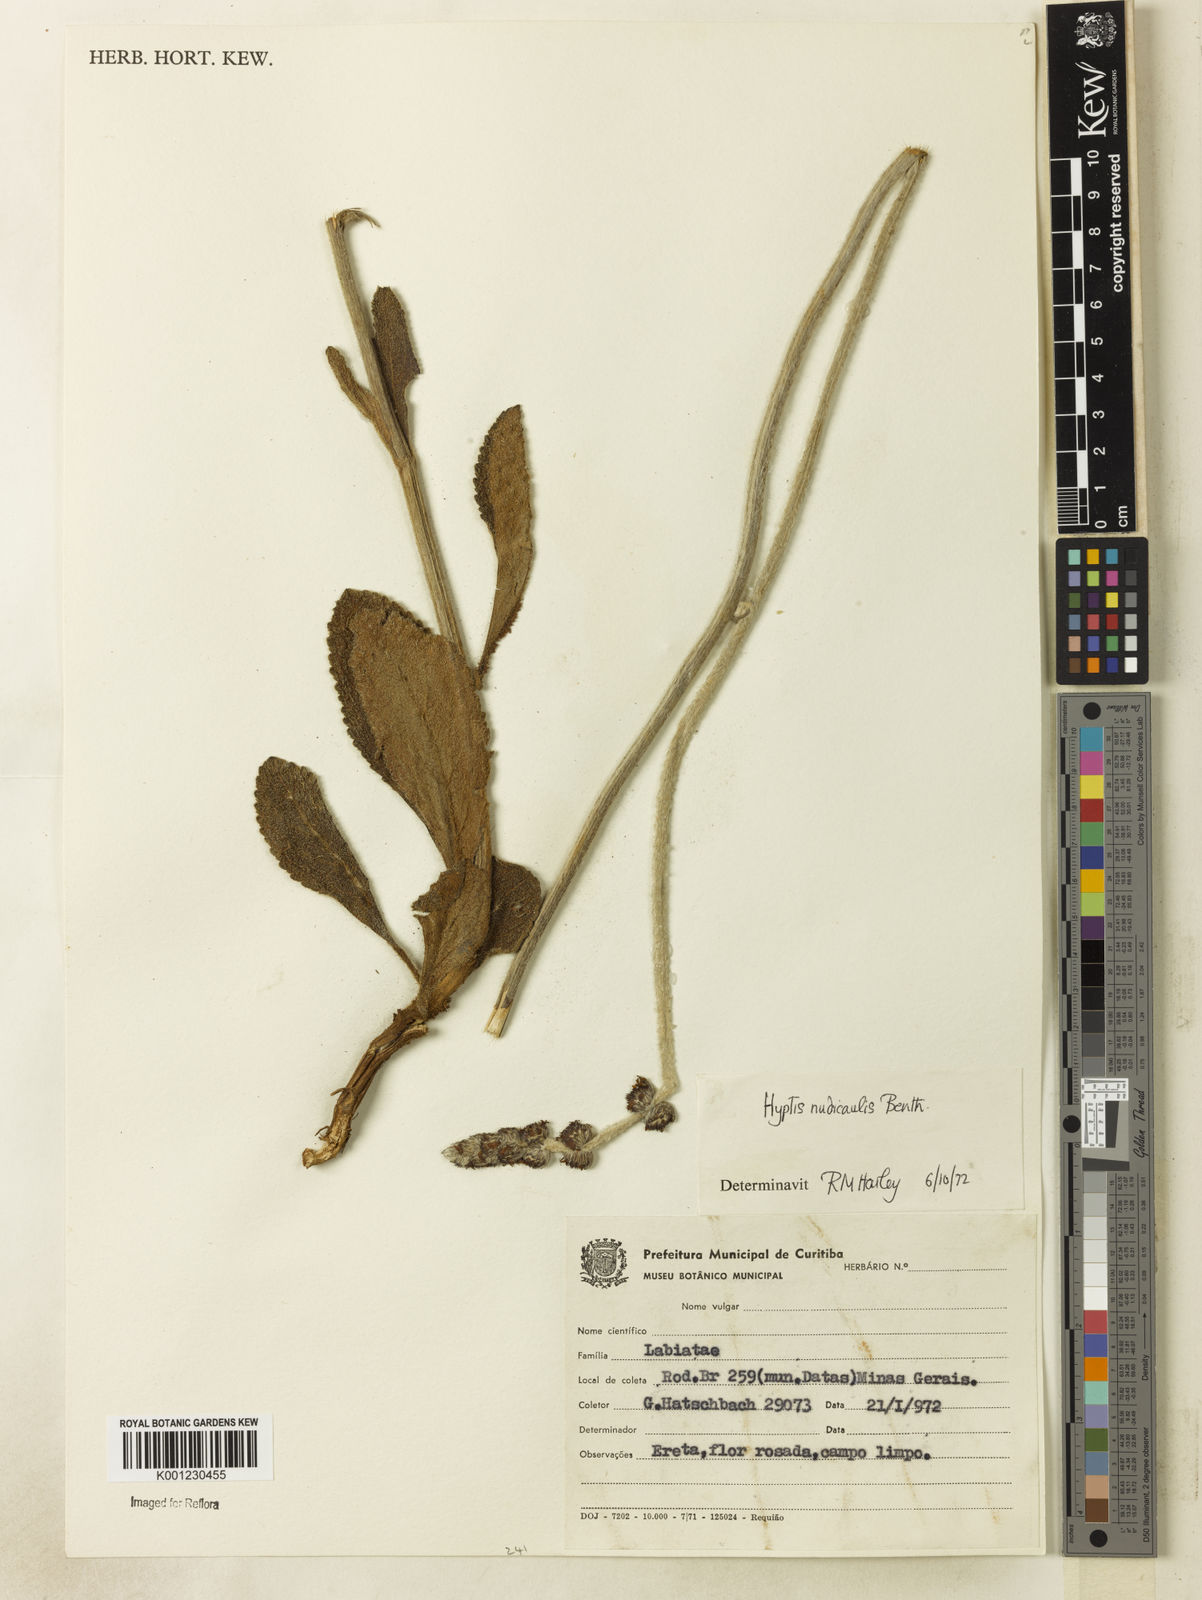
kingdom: Plantae
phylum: Tracheophyta
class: Magnoliopsida
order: Lamiales
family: Lamiaceae
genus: Hyptis
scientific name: Hyptis nudicaulis
